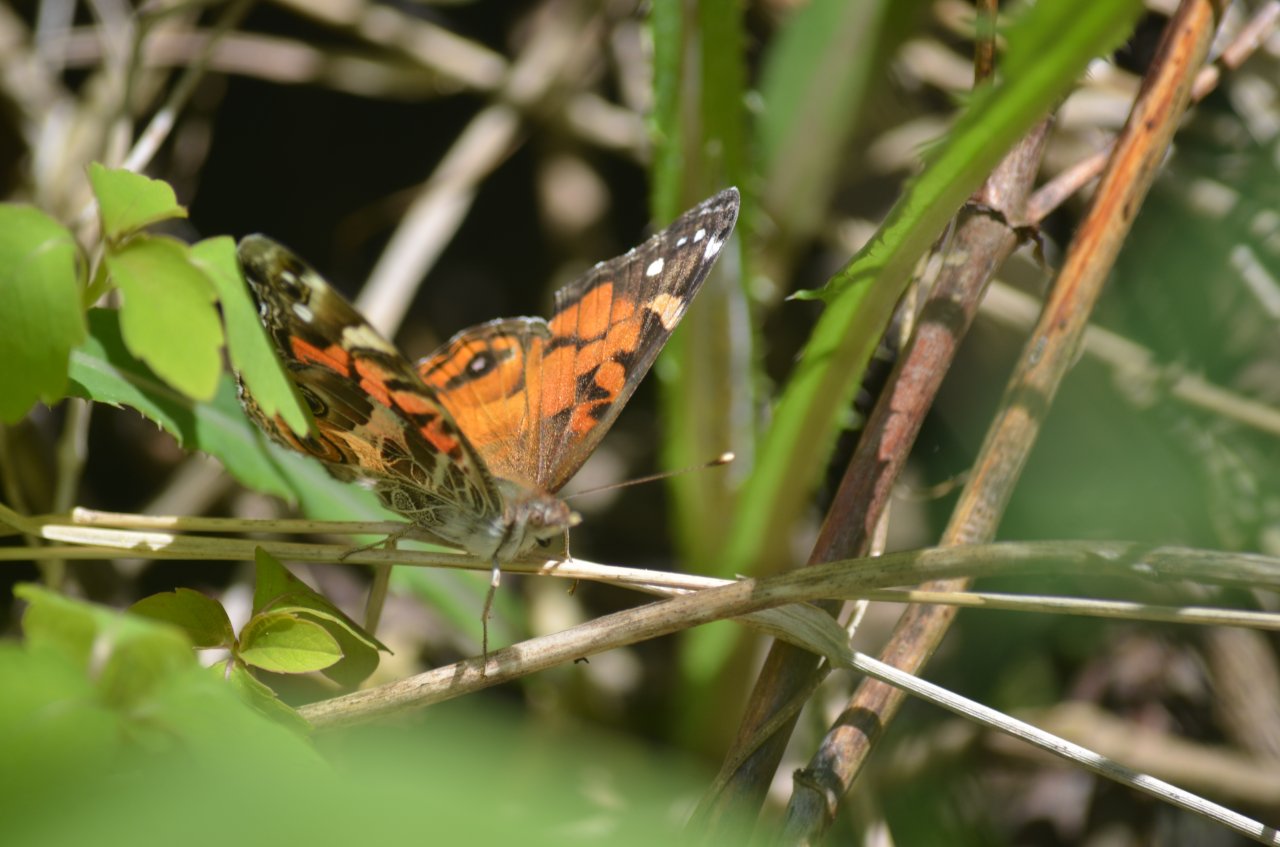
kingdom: Animalia
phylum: Arthropoda
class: Insecta
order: Lepidoptera
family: Nymphalidae
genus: Vanessa
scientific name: Vanessa virginiensis
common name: American Lady
